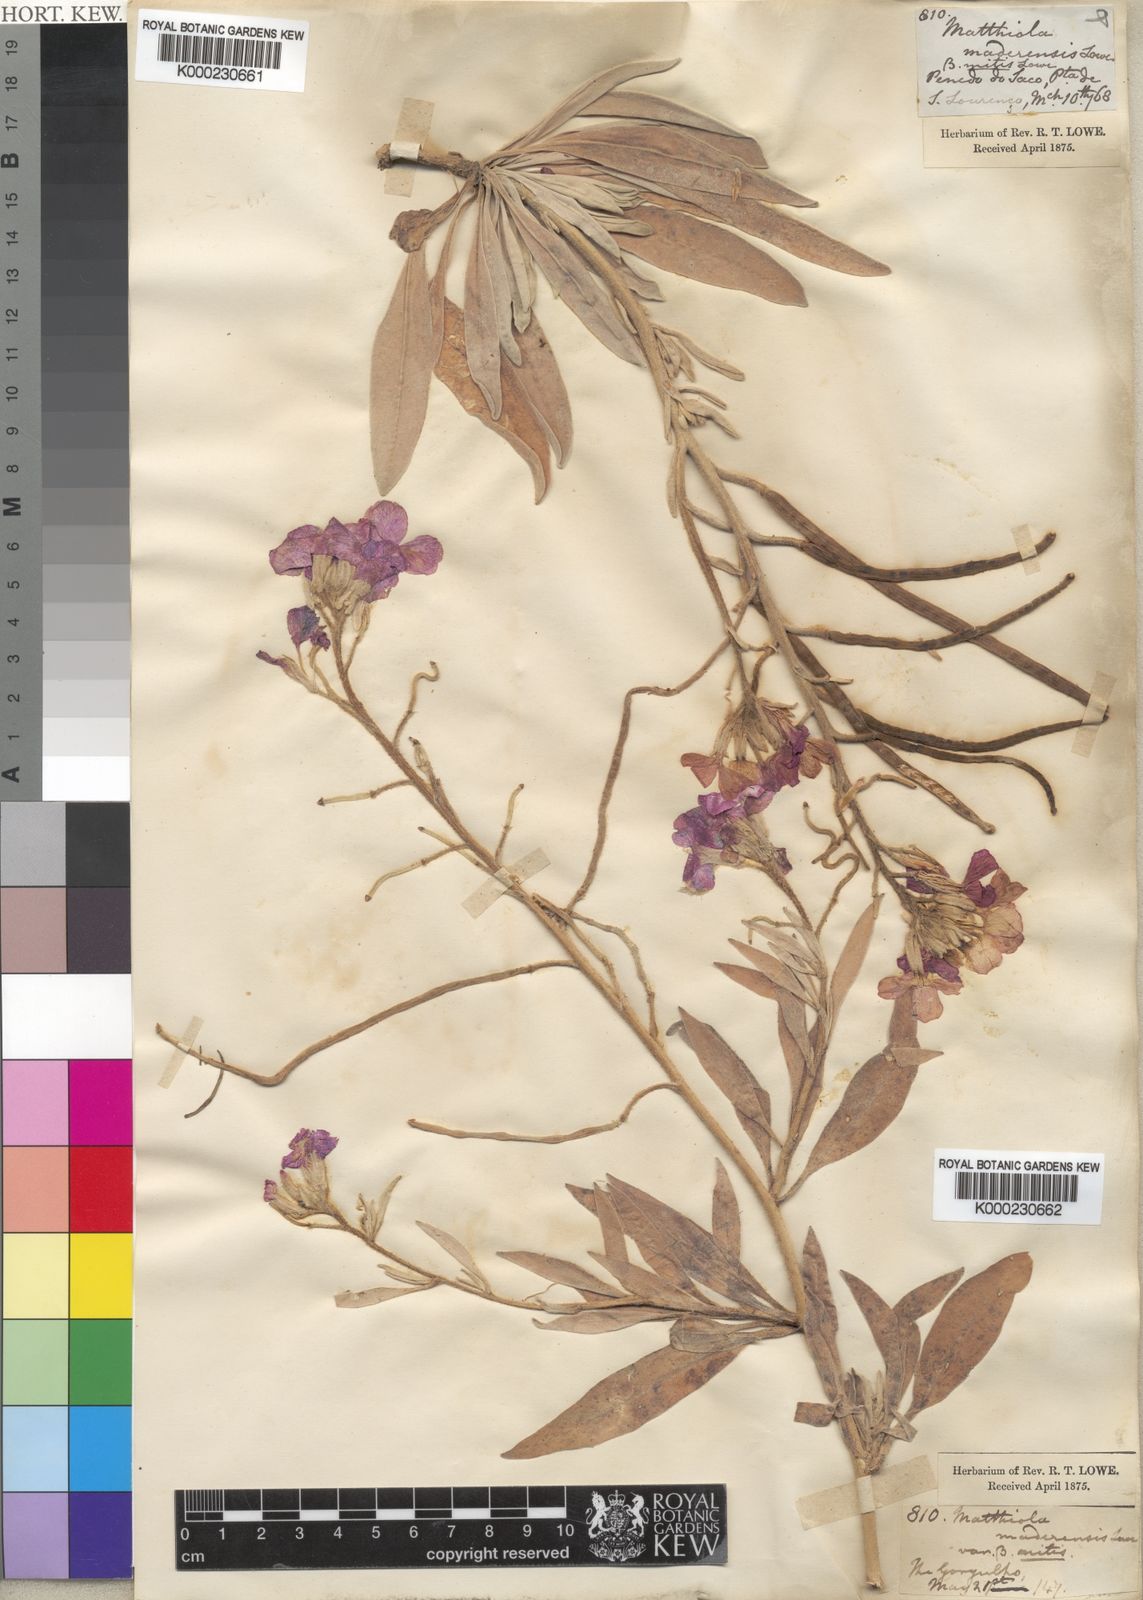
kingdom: Plantae
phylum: Tracheophyta
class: Magnoliopsida
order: Brassicales
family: Brassicaceae
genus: Matthiola
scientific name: Matthiola maderensis
